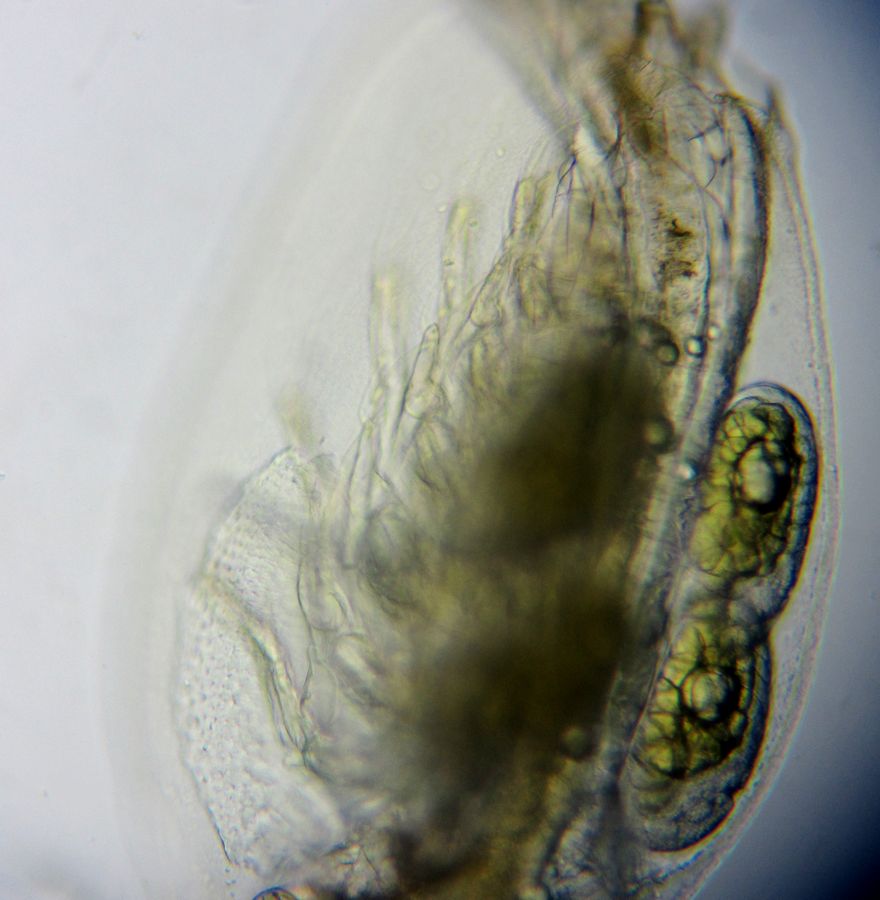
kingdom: Animalia
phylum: Arthropoda
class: Branchiopoda
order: Diplostraca
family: Sididae
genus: Sida
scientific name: Sida crystallina
